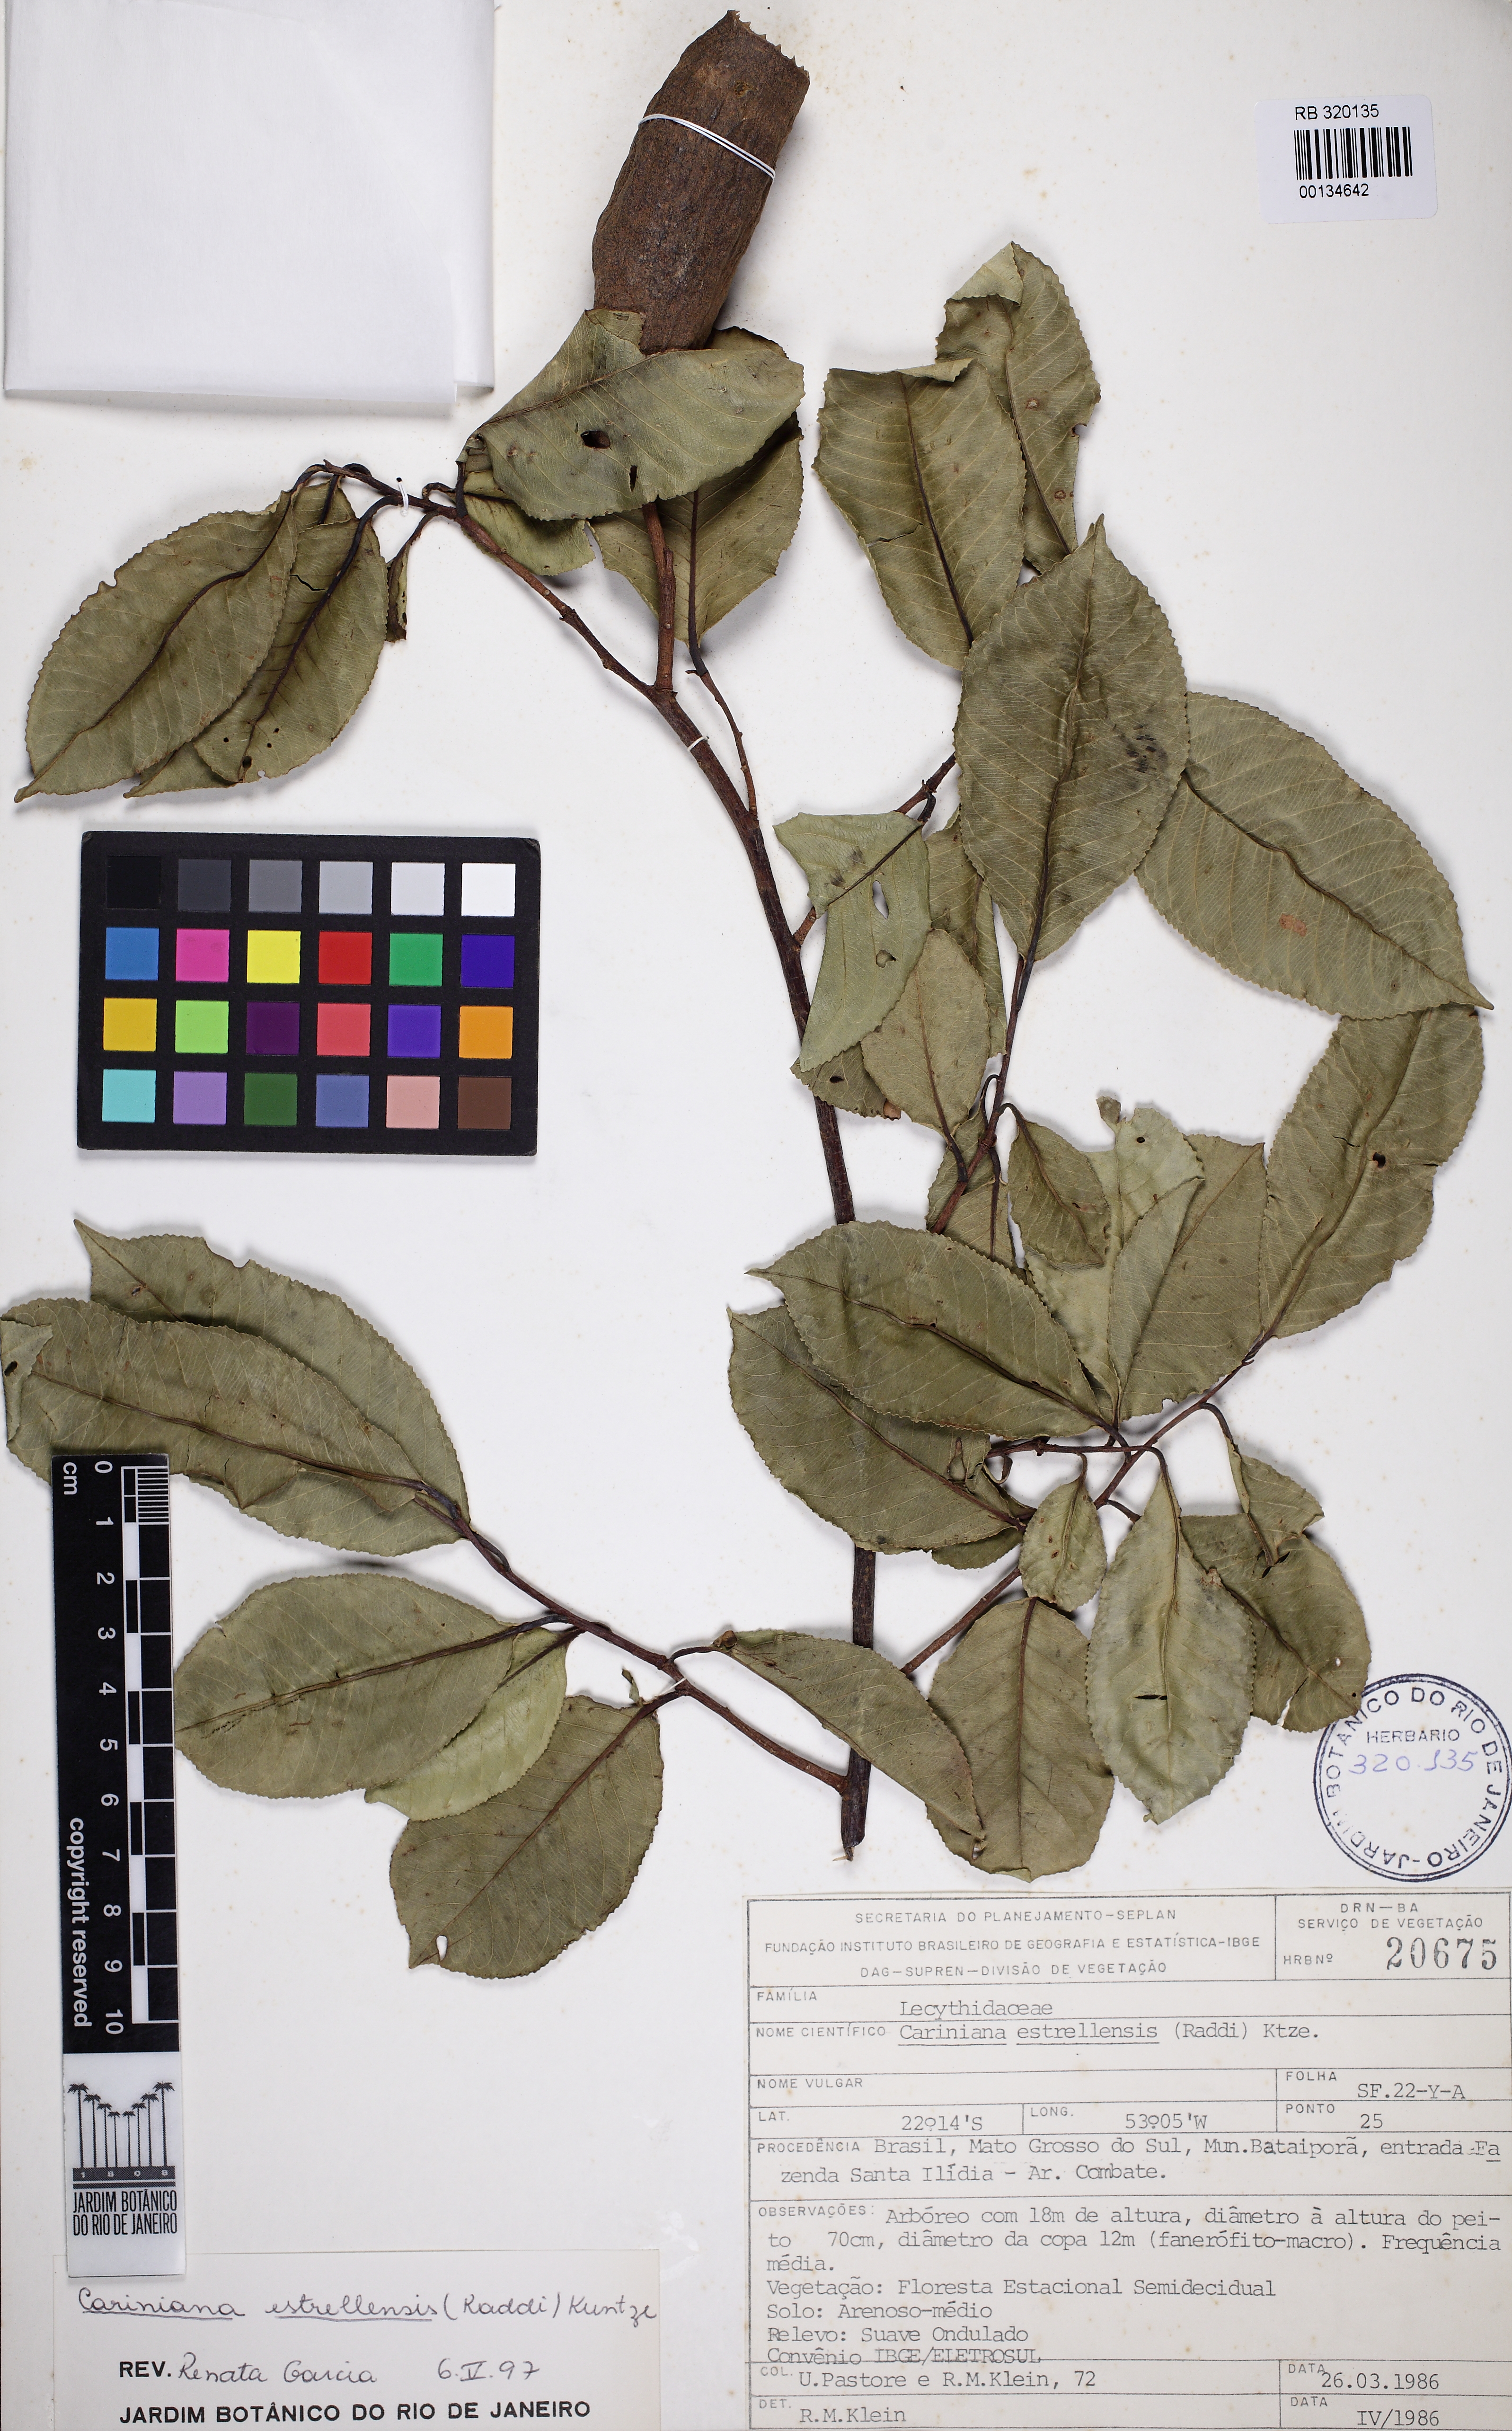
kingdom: Plantae
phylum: Tracheophyta
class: Magnoliopsida
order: Ericales
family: Lecythidaceae
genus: Cariniana
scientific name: Cariniana estrellensis
